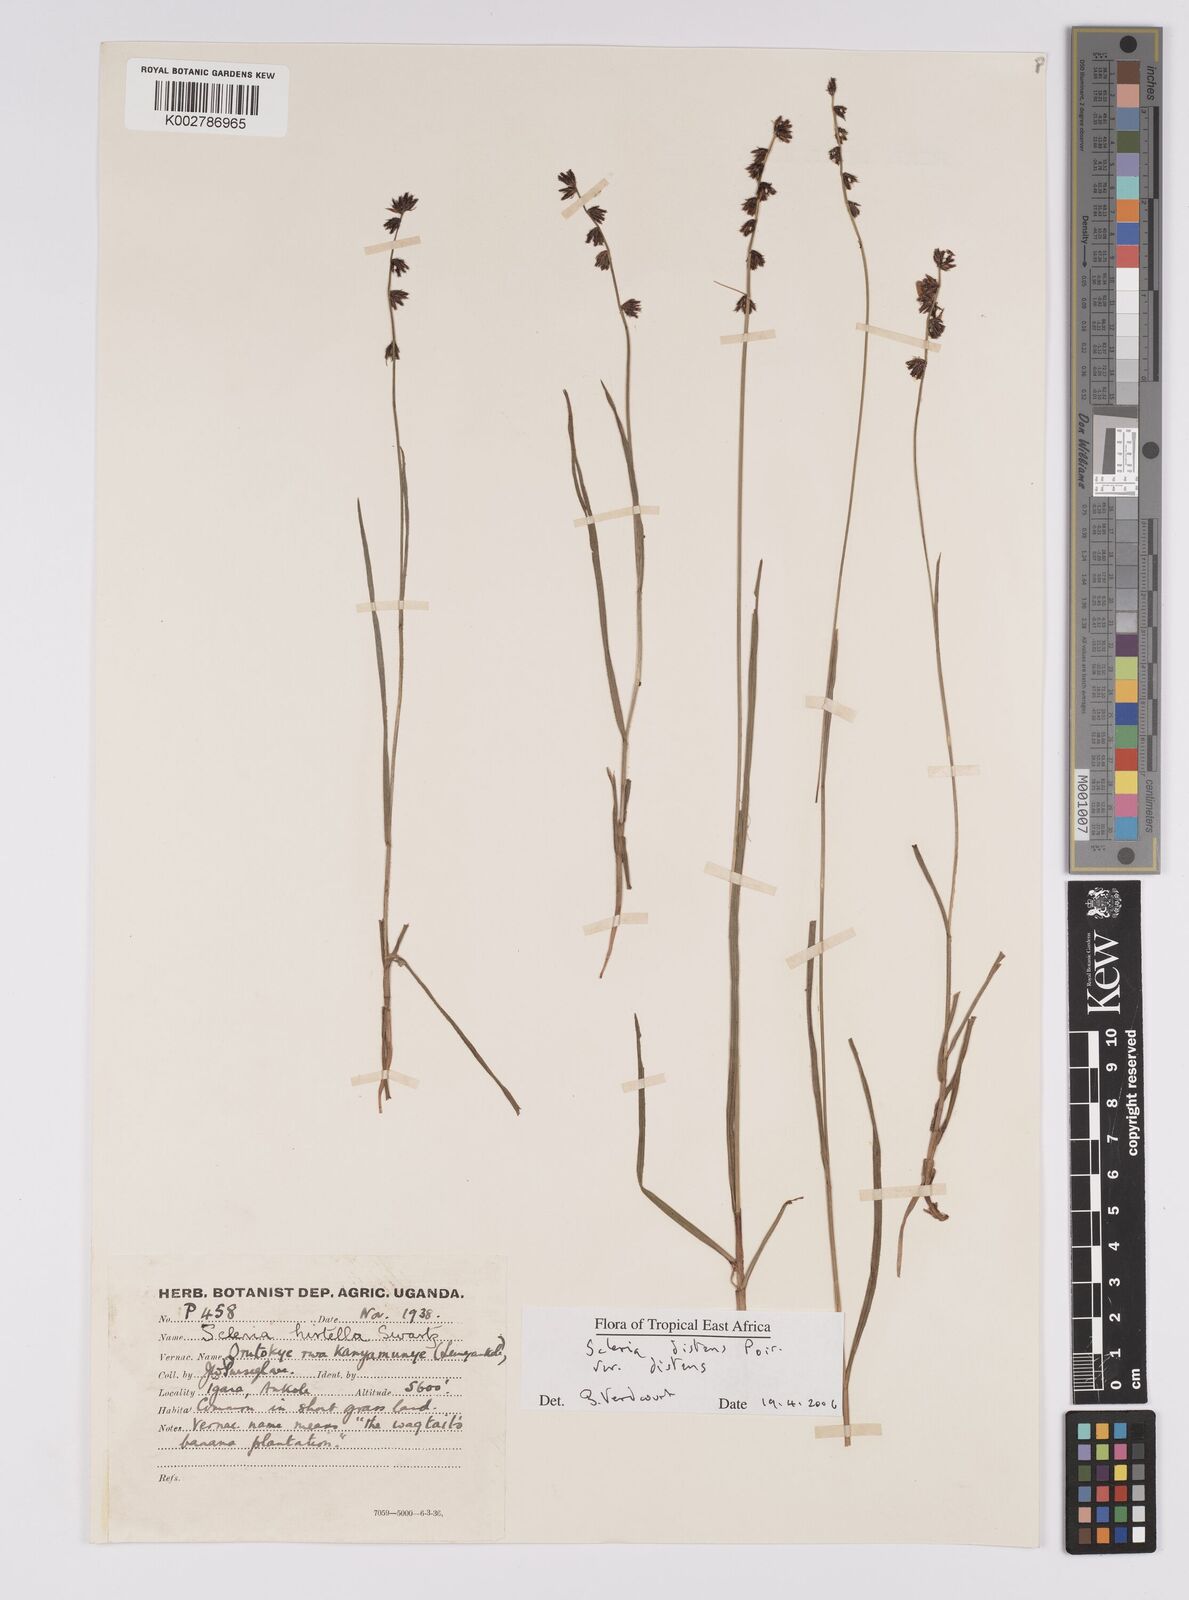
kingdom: Plantae
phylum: Tracheophyta
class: Liliopsida
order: Poales
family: Cyperaceae
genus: Scleria
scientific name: Scleria
